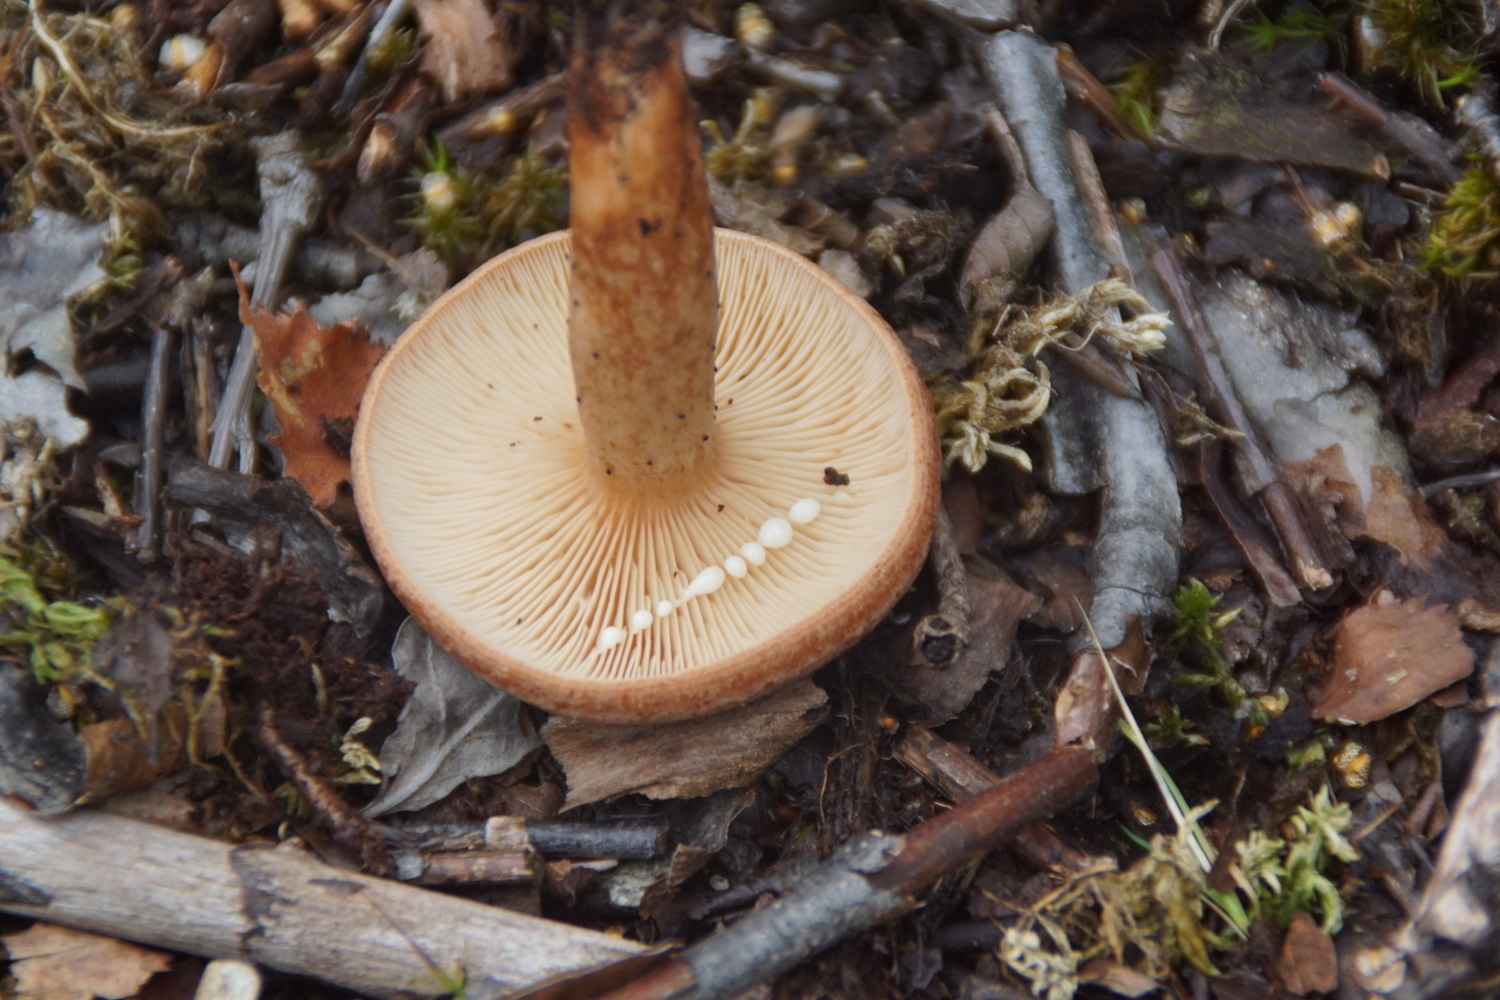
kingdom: Fungi
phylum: Basidiomycota
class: Agaricomycetes
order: Russulales
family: Russulaceae
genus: Lactarius
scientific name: Lactarius quietus
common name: ege-mælkehat
